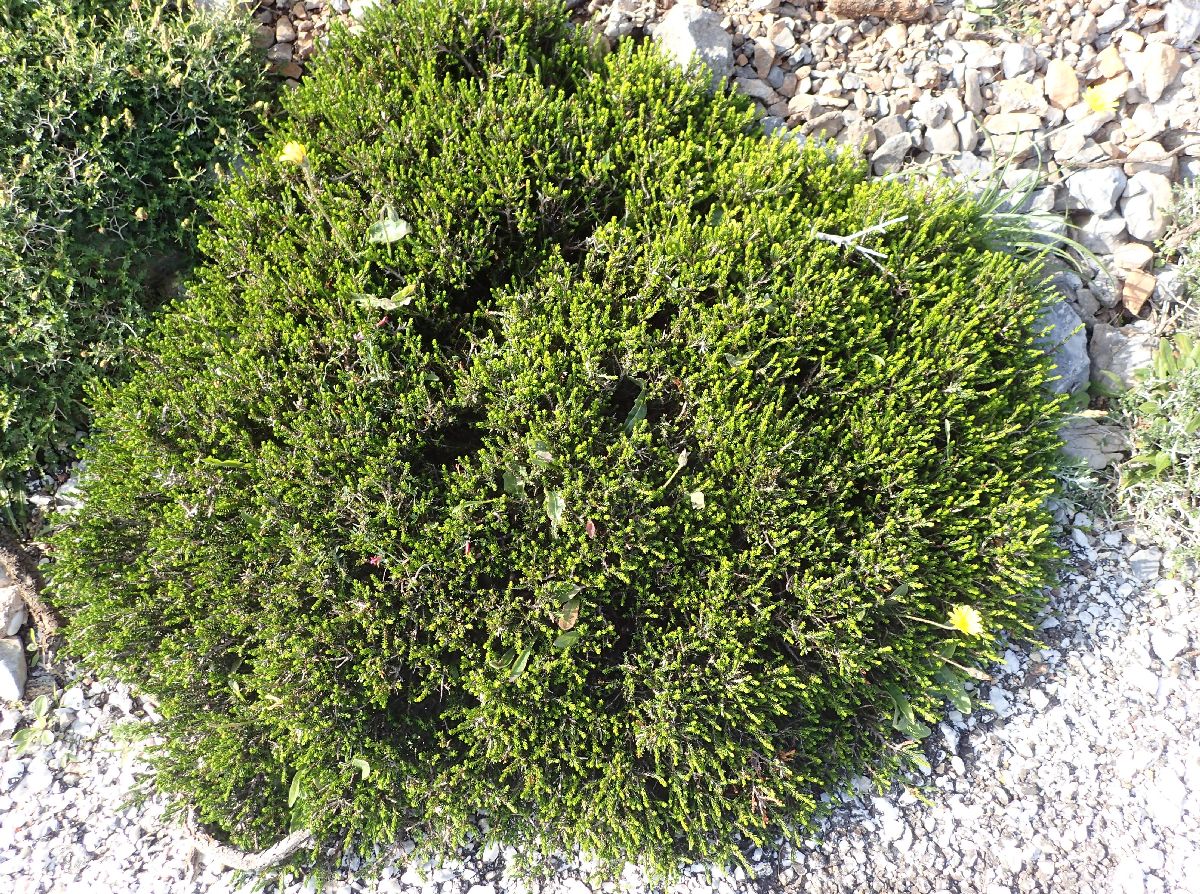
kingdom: Plantae
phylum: Tracheophyta
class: Magnoliopsida
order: Lamiales
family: Lamiaceae
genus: Thymbra
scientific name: Thymbra capitata
